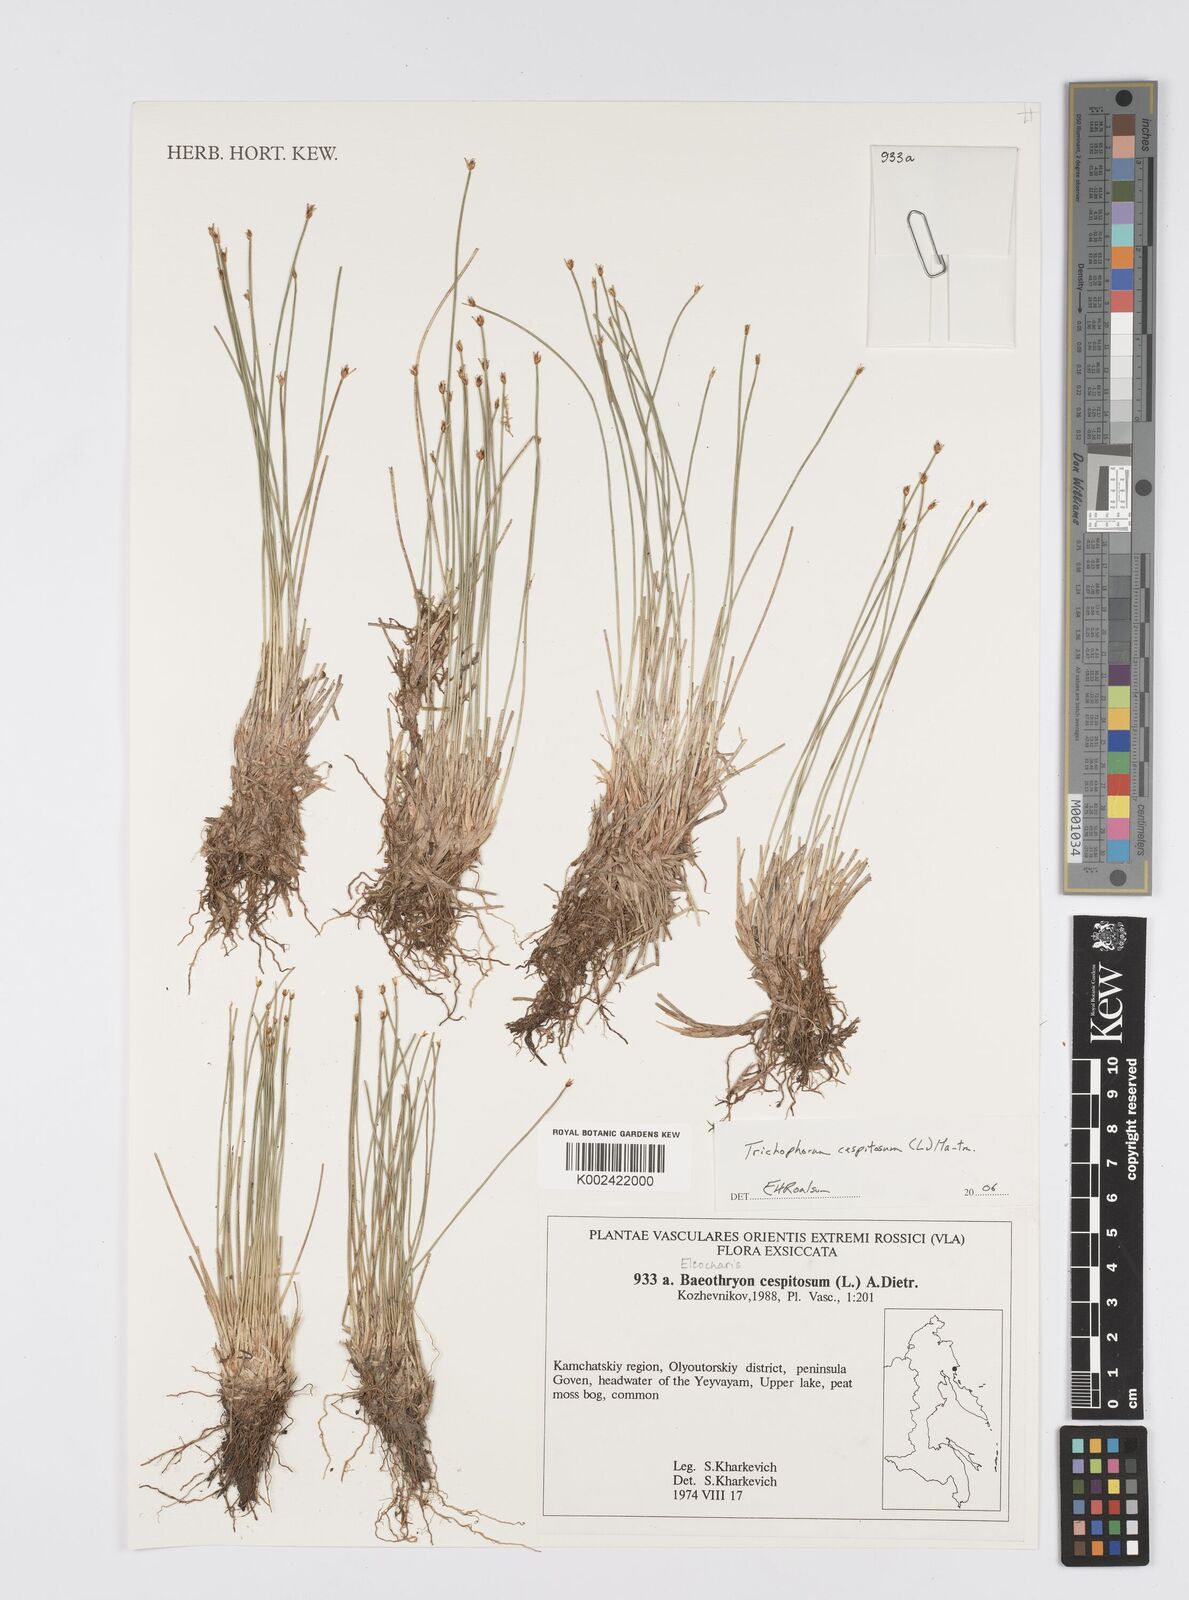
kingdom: Plantae
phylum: Tracheophyta
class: Liliopsida
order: Poales
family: Cyperaceae
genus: Eleocharis
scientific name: Eleocharis
